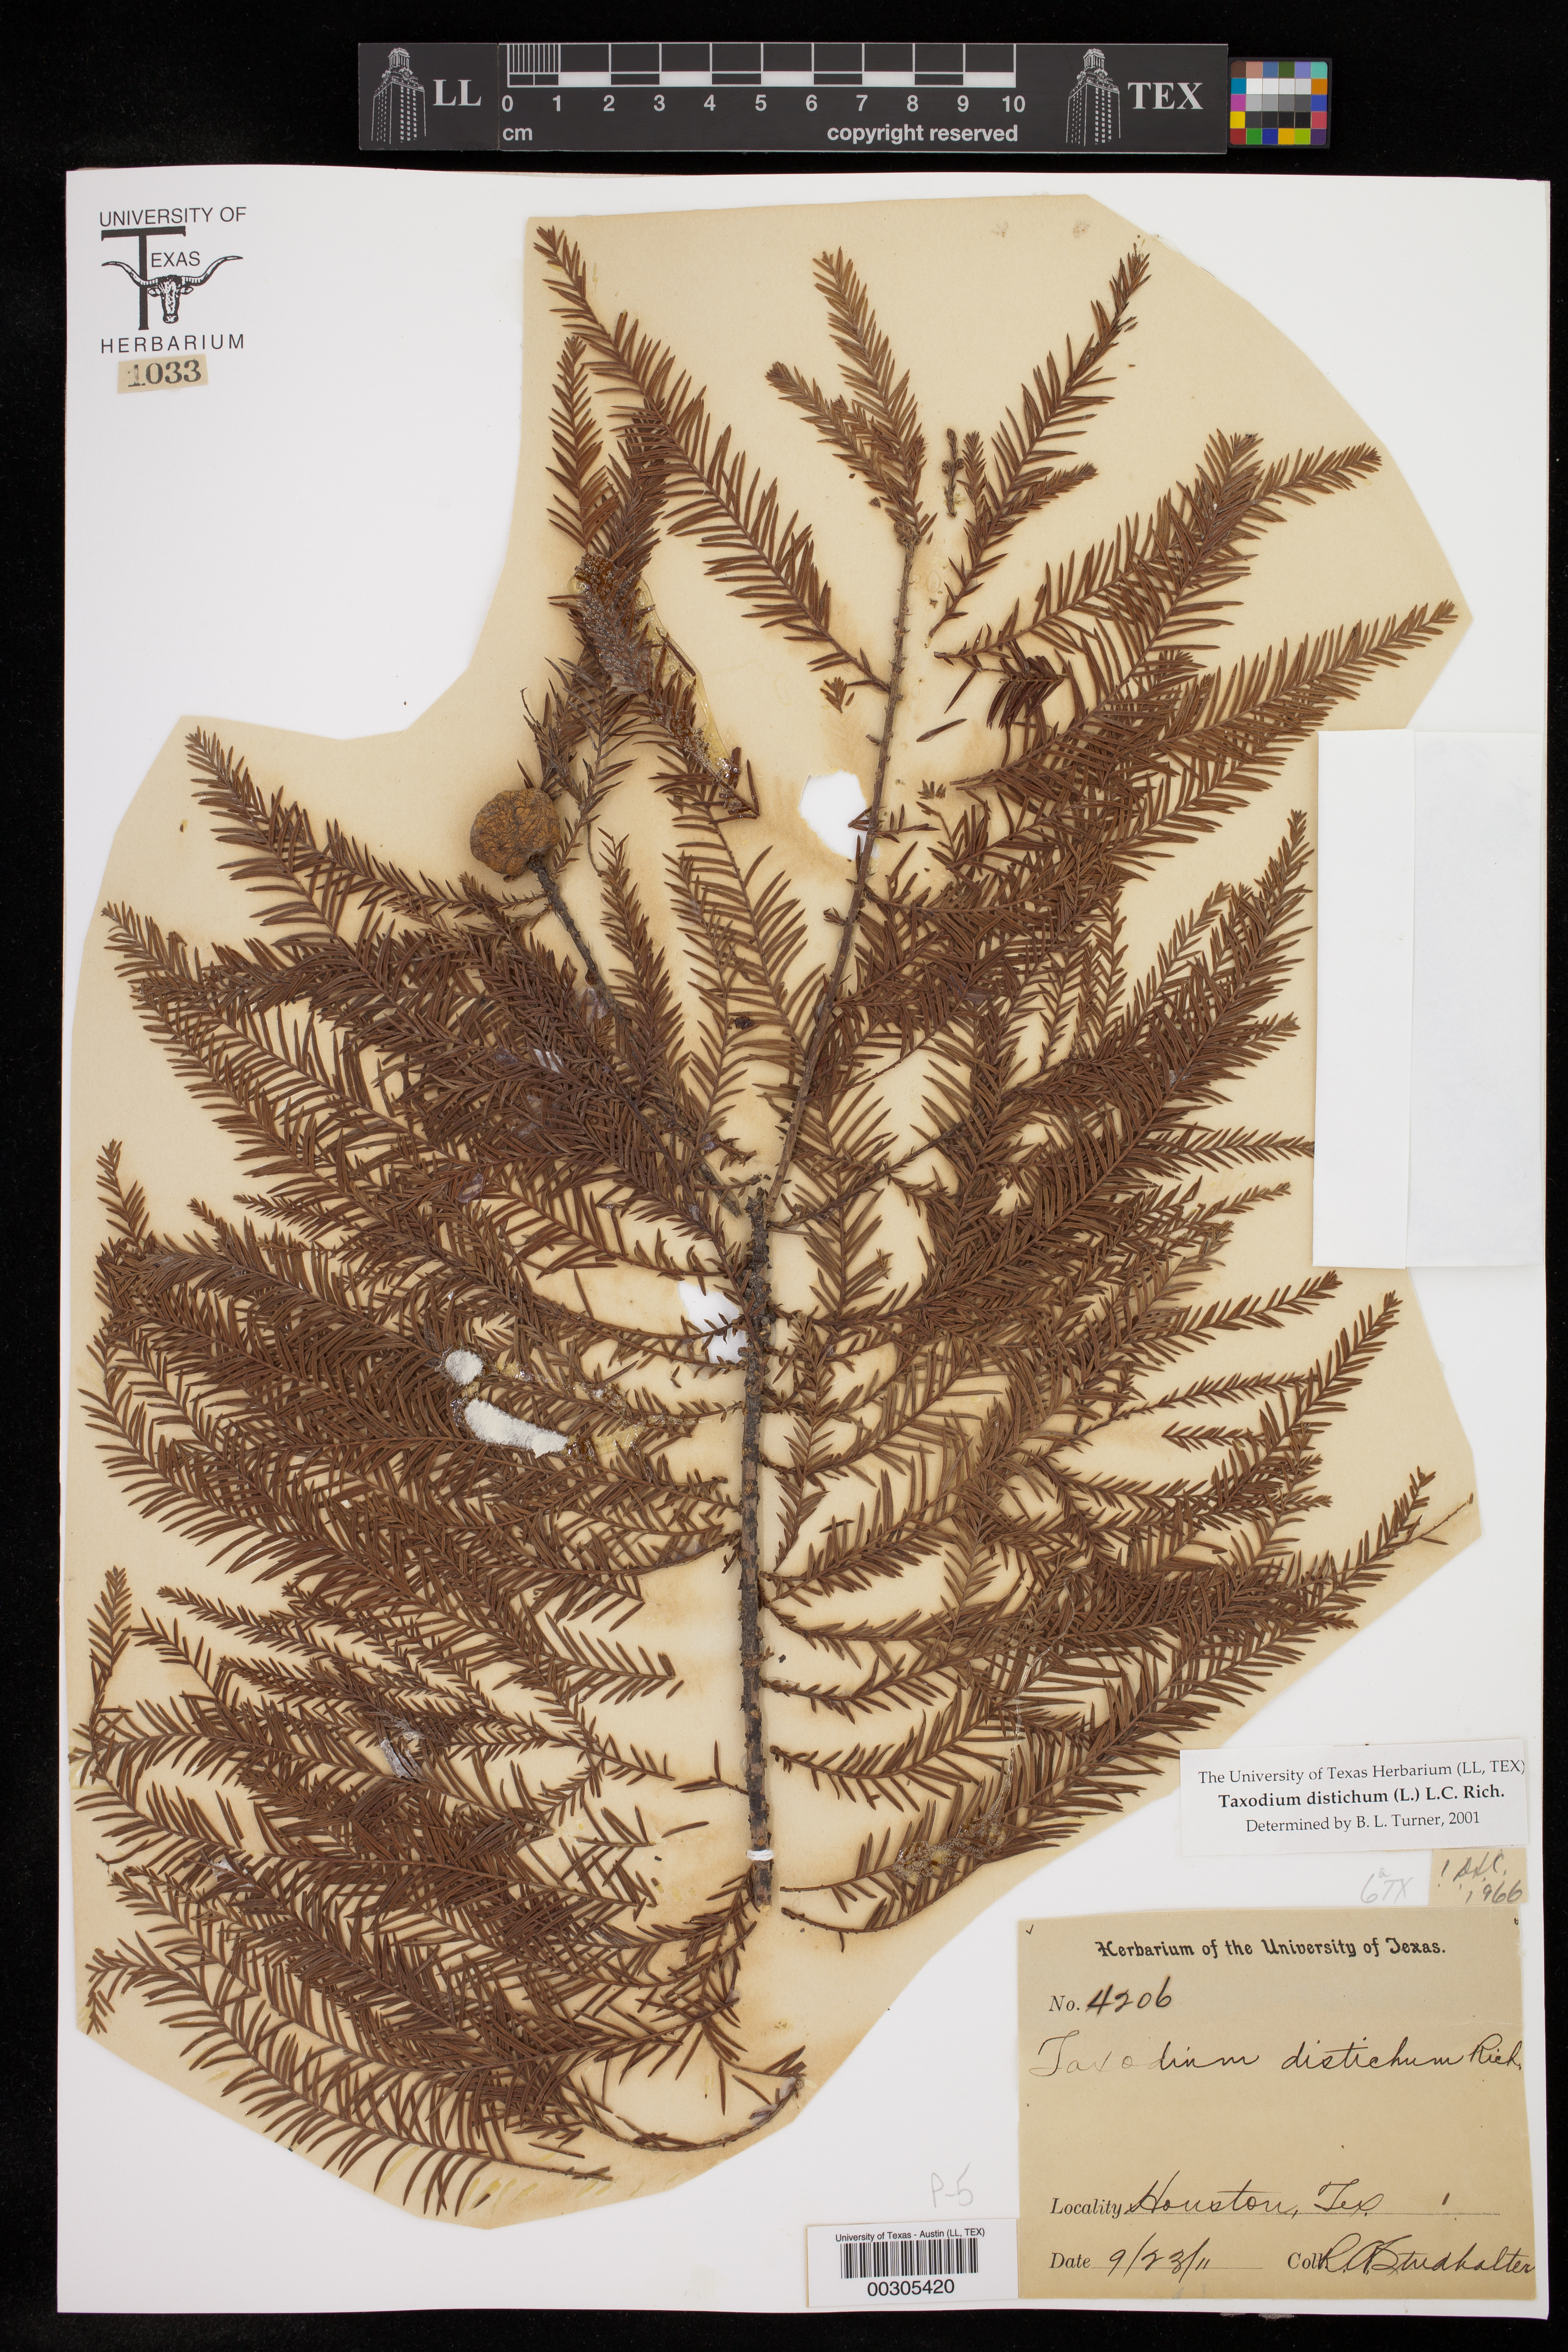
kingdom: Plantae
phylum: Tracheophyta
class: Pinopsida
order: Pinales
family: Cupressaceae
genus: Taxodium
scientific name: Taxodium distichum
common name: Bald cypress
